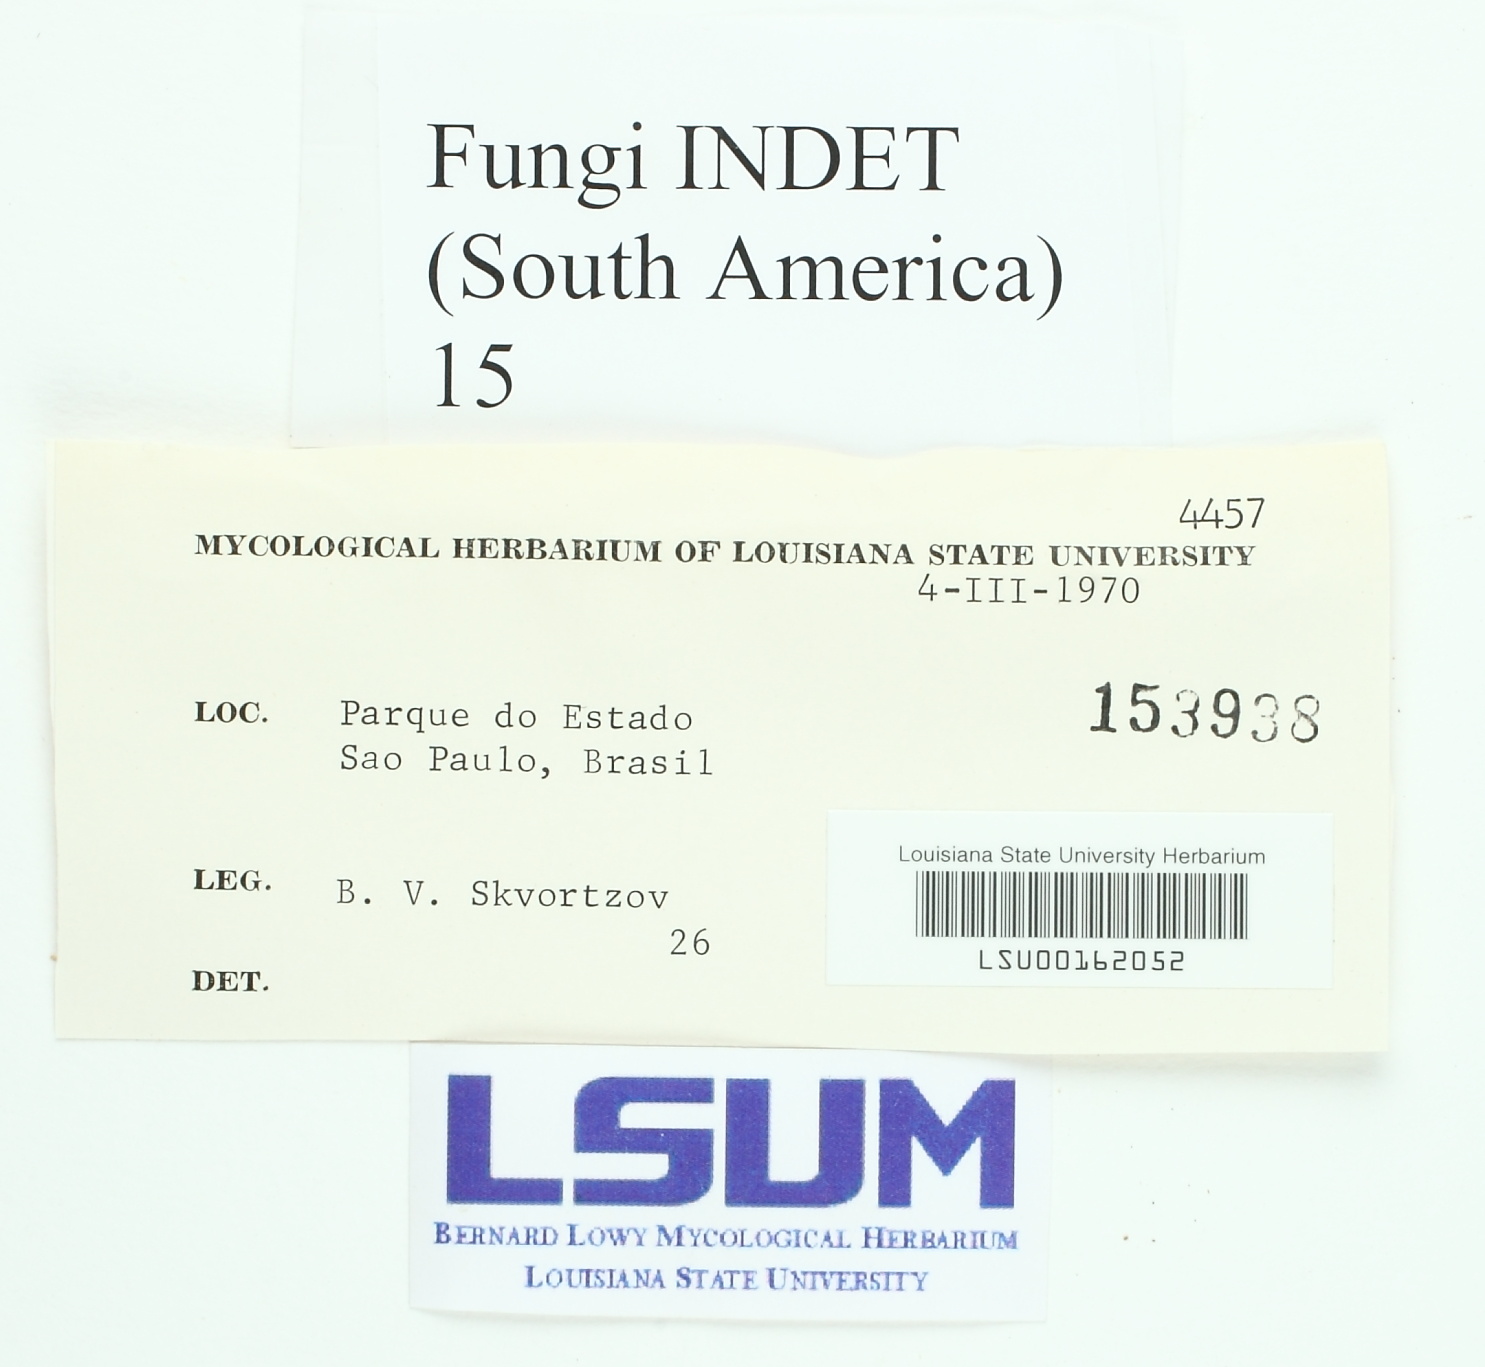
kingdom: Fungi
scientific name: Fungi
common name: Fungi
